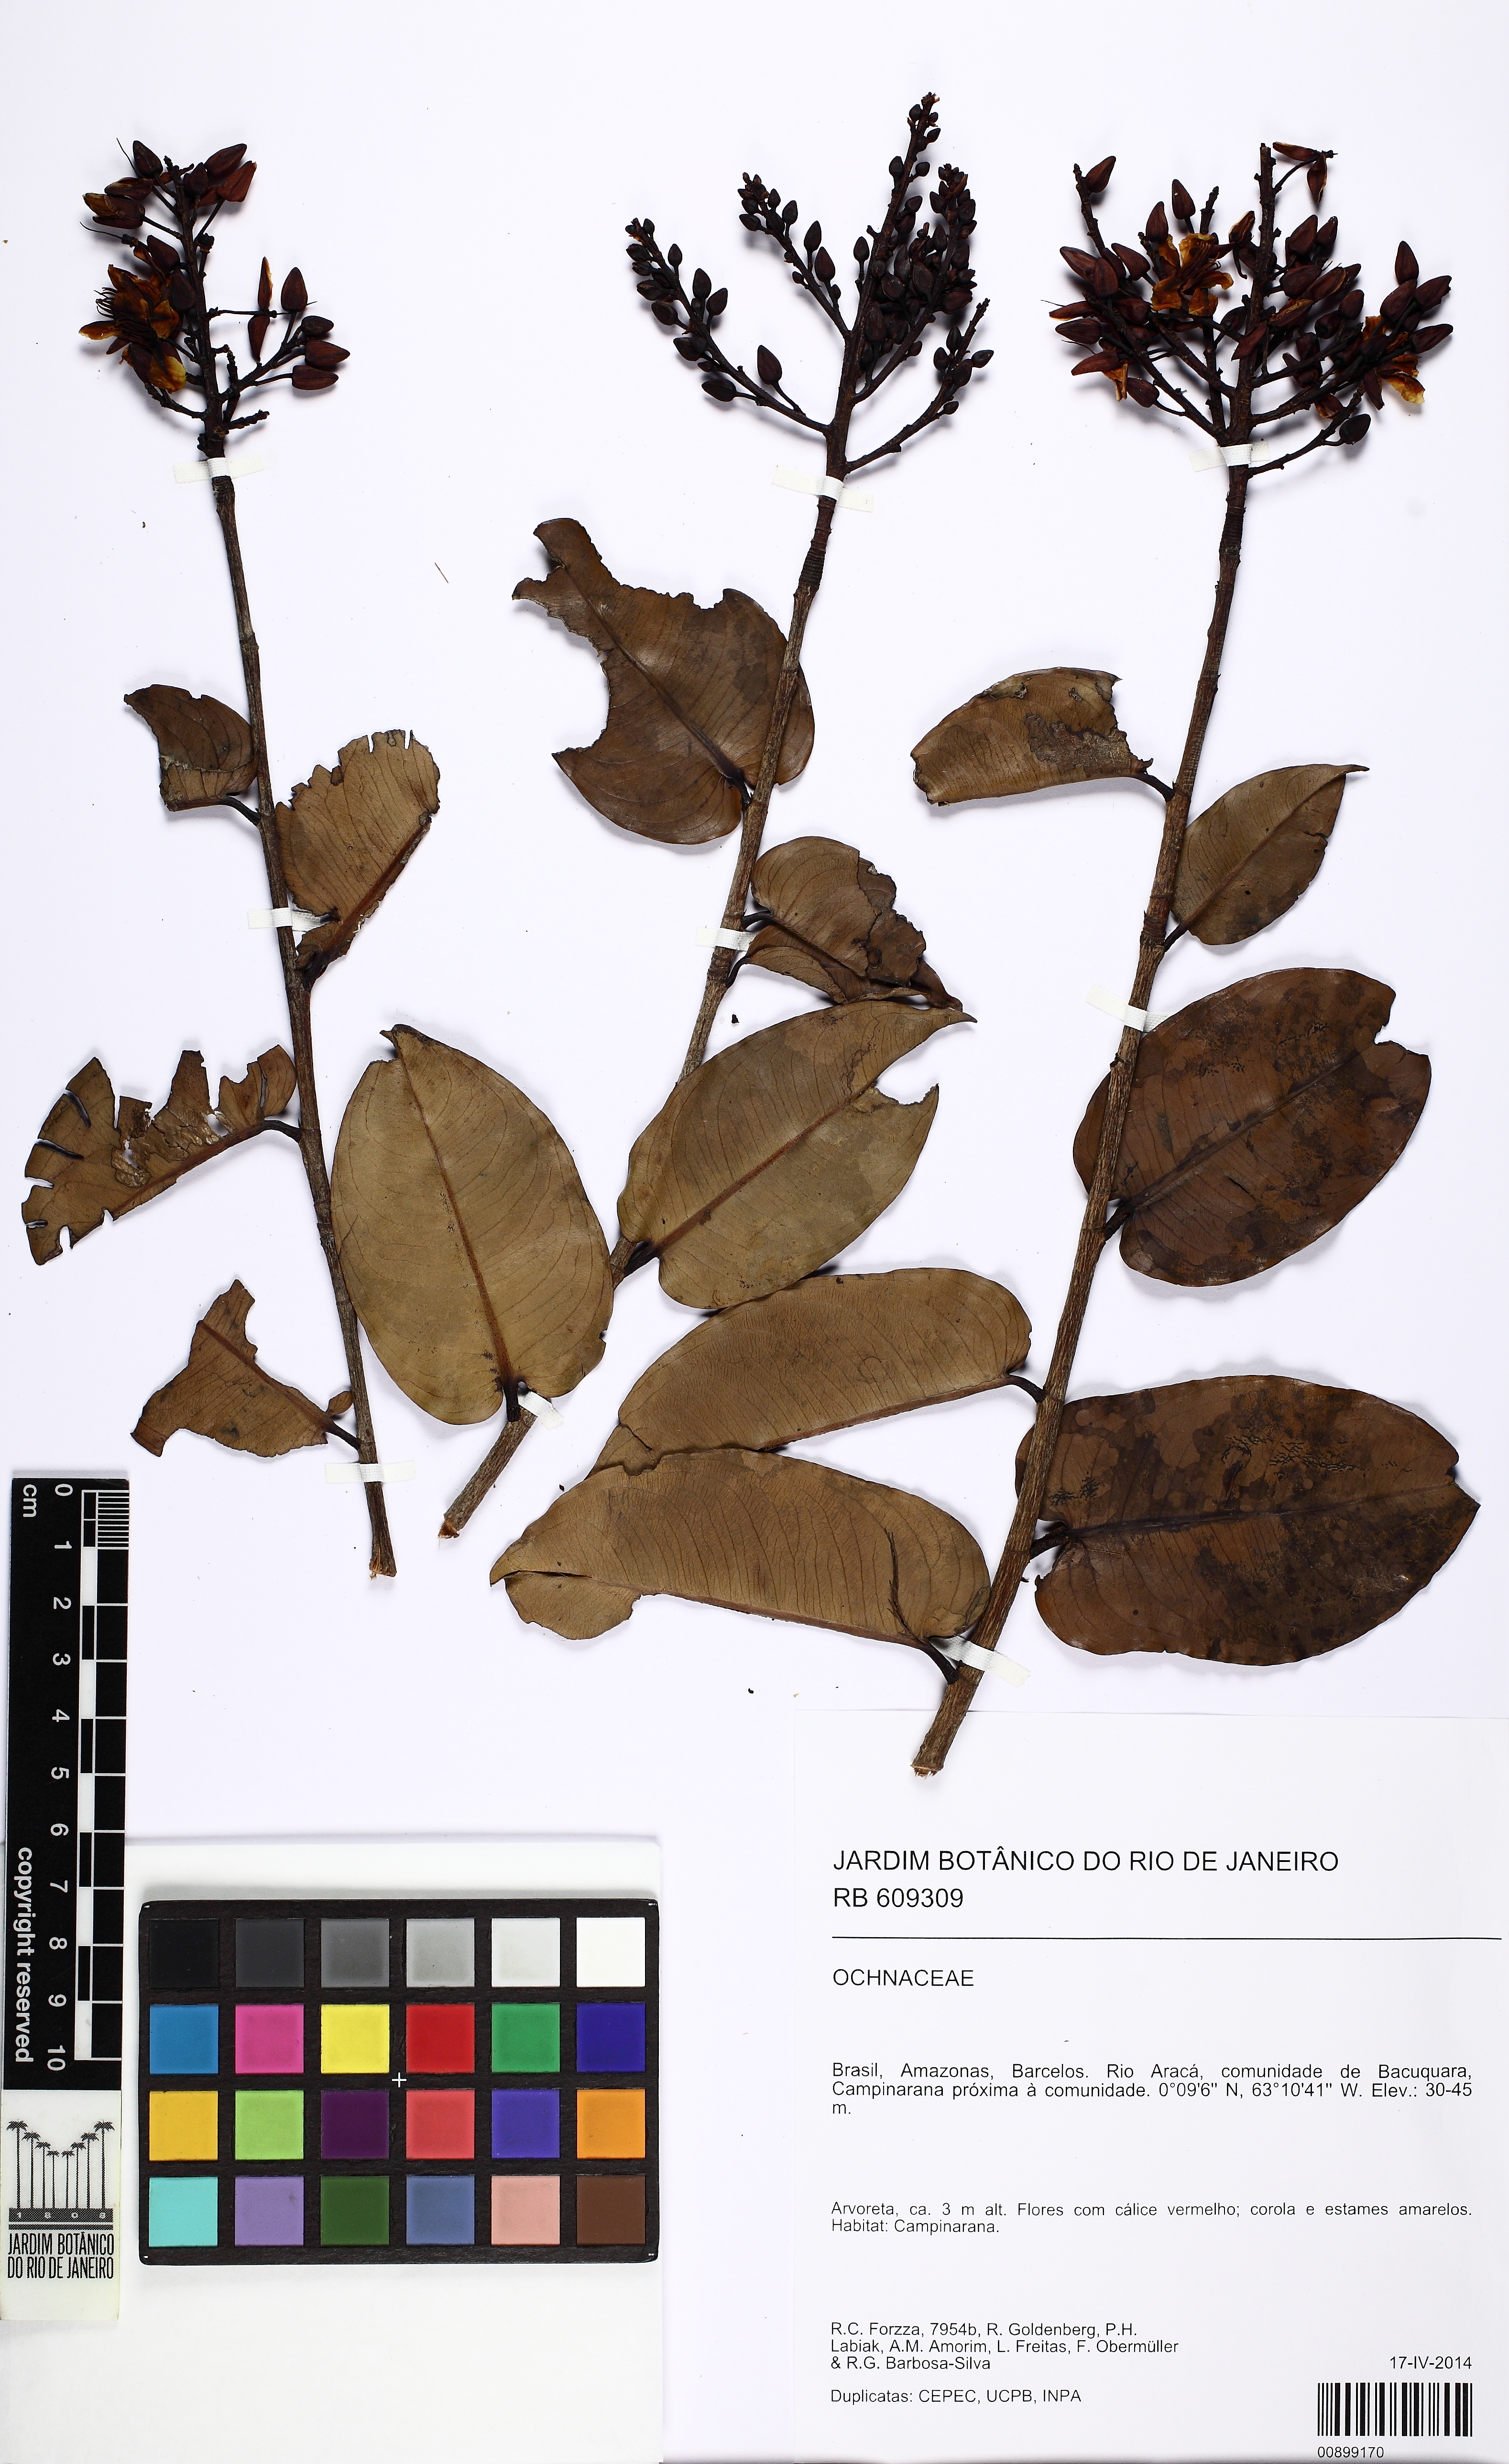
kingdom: Plantae
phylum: Tracheophyta
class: Magnoliopsida
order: Malpighiales
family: Ochnaceae
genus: Ouratea
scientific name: Ouratea
